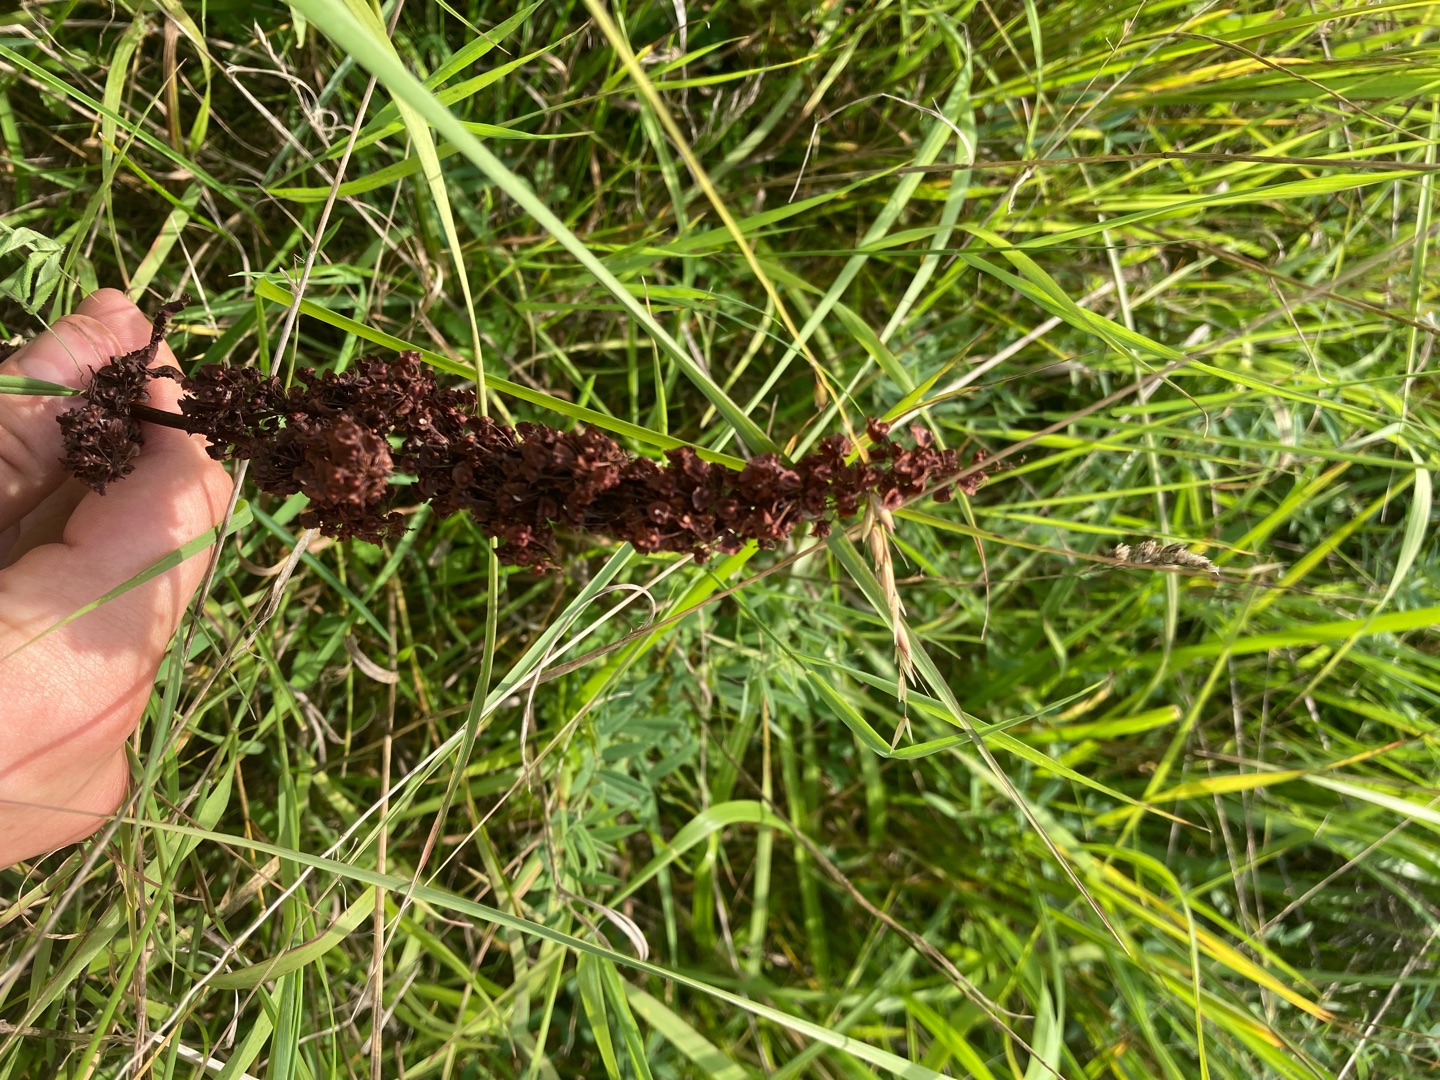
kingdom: Plantae
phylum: Tracheophyta
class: Magnoliopsida
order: Caryophyllales
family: Polygonaceae
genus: Rumex
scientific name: Rumex crispus
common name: Kruset skræppe
